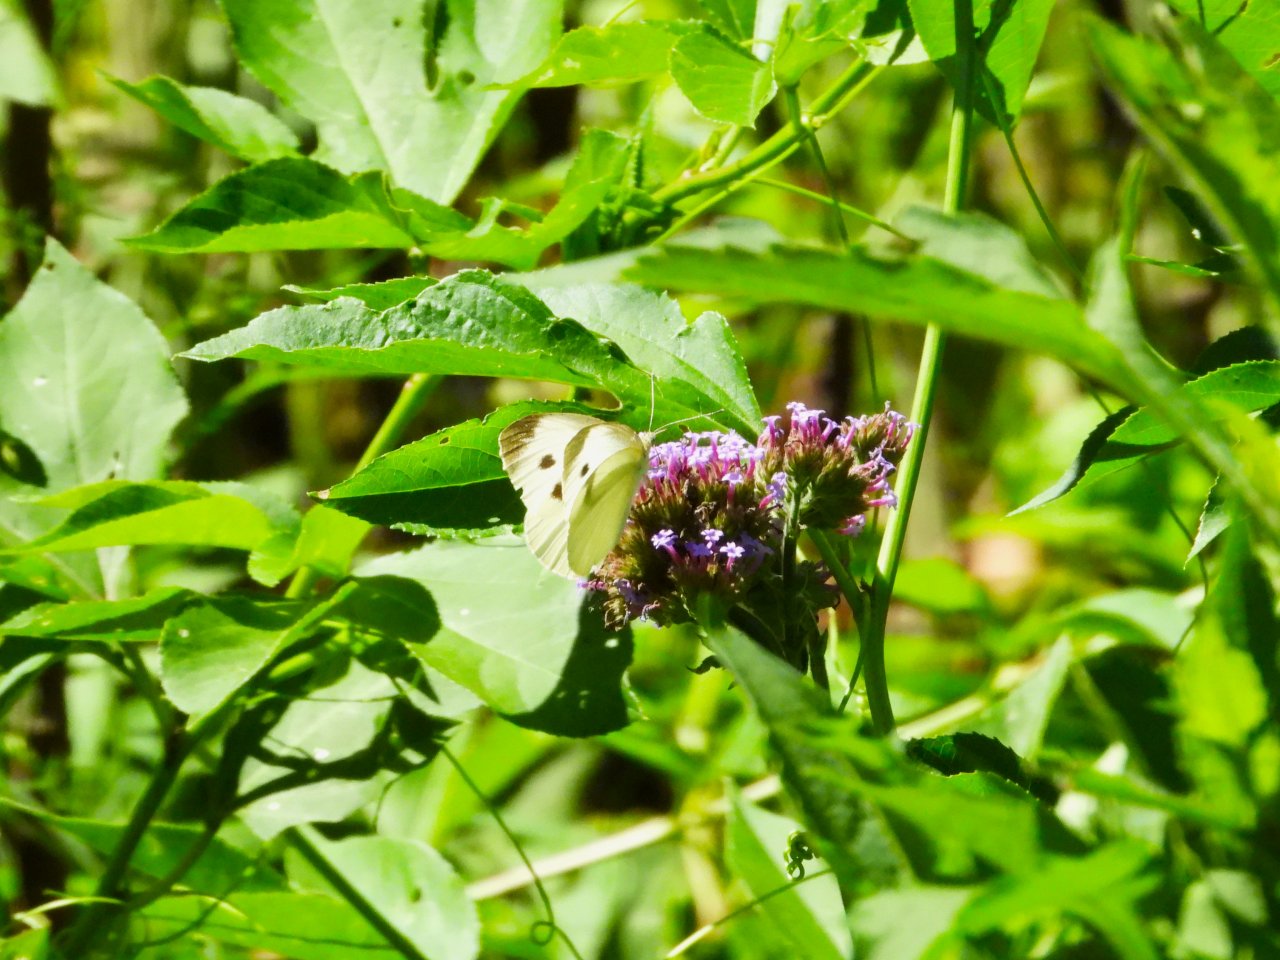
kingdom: Animalia
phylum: Arthropoda
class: Insecta
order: Lepidoptera
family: Pieridae
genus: Pieris
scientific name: Pieris rapae
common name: Cabbage White
